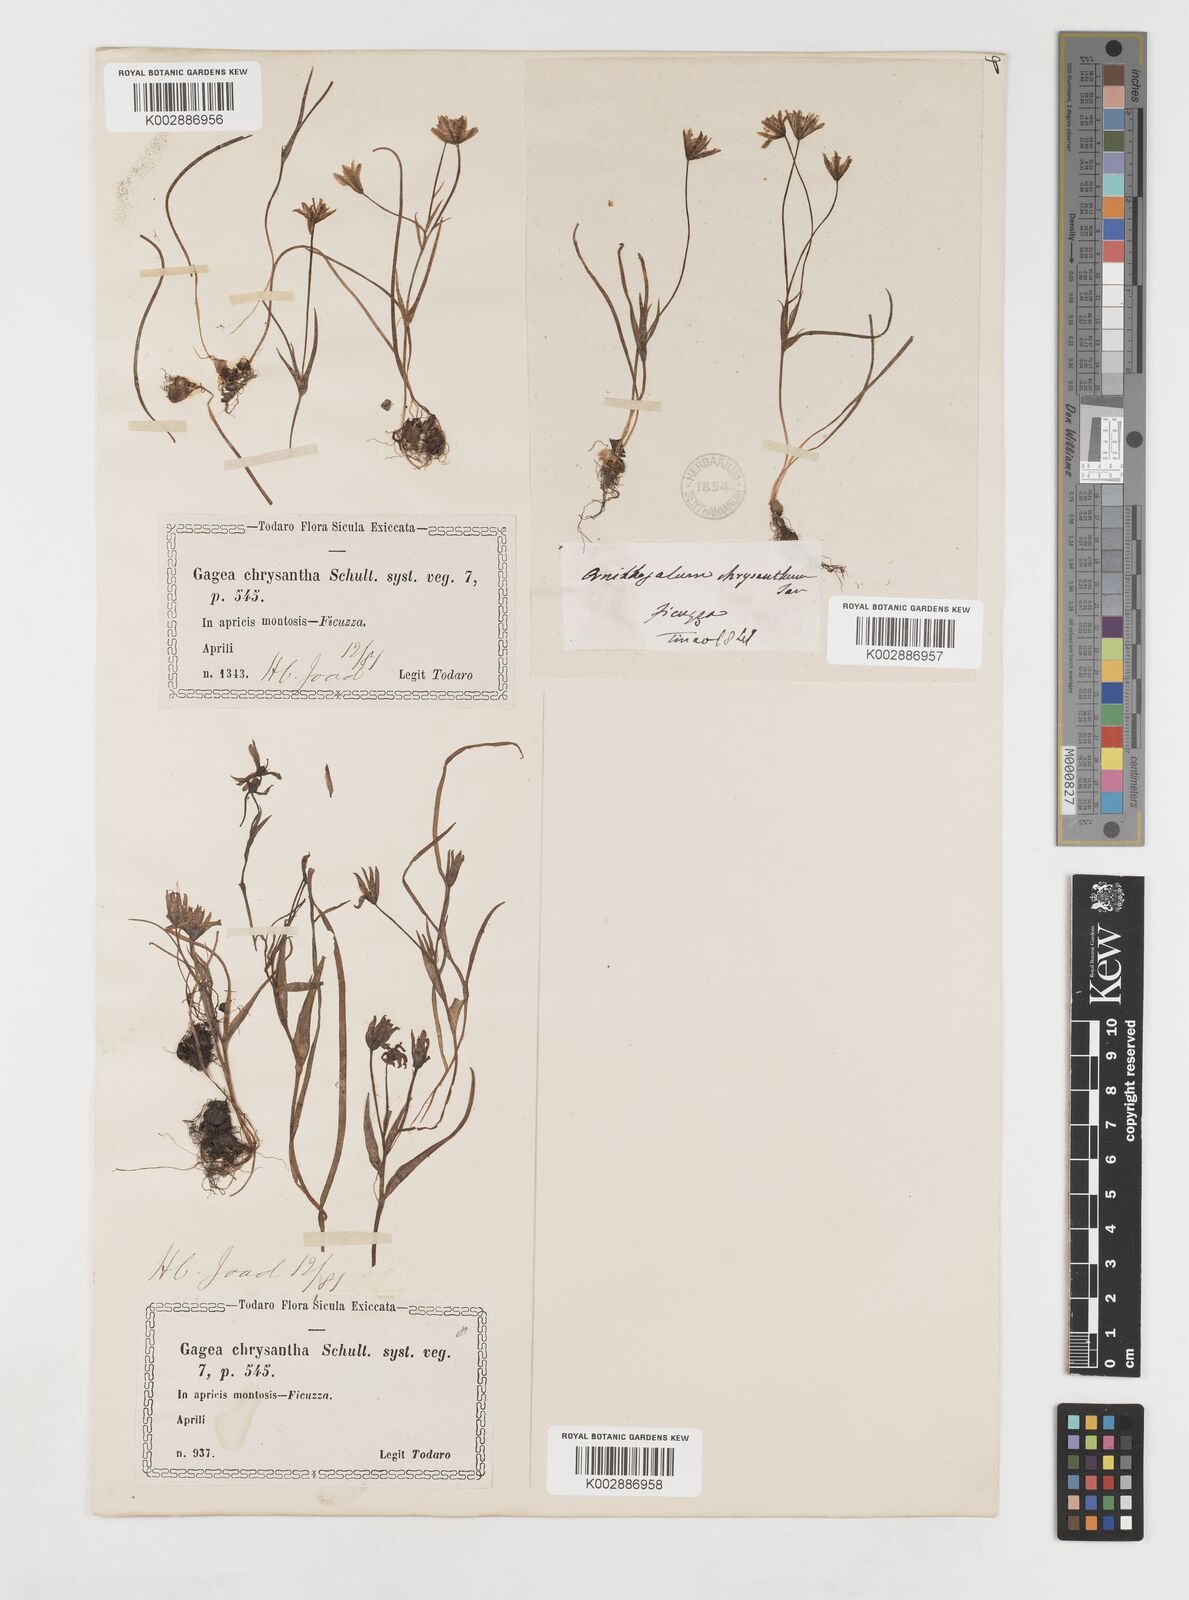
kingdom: Plantae
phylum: Tracheophyta
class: Liliopsida
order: Liliales
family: Liliaceae
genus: Gagea
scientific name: Gagea chrysantha
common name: Golden gagea
